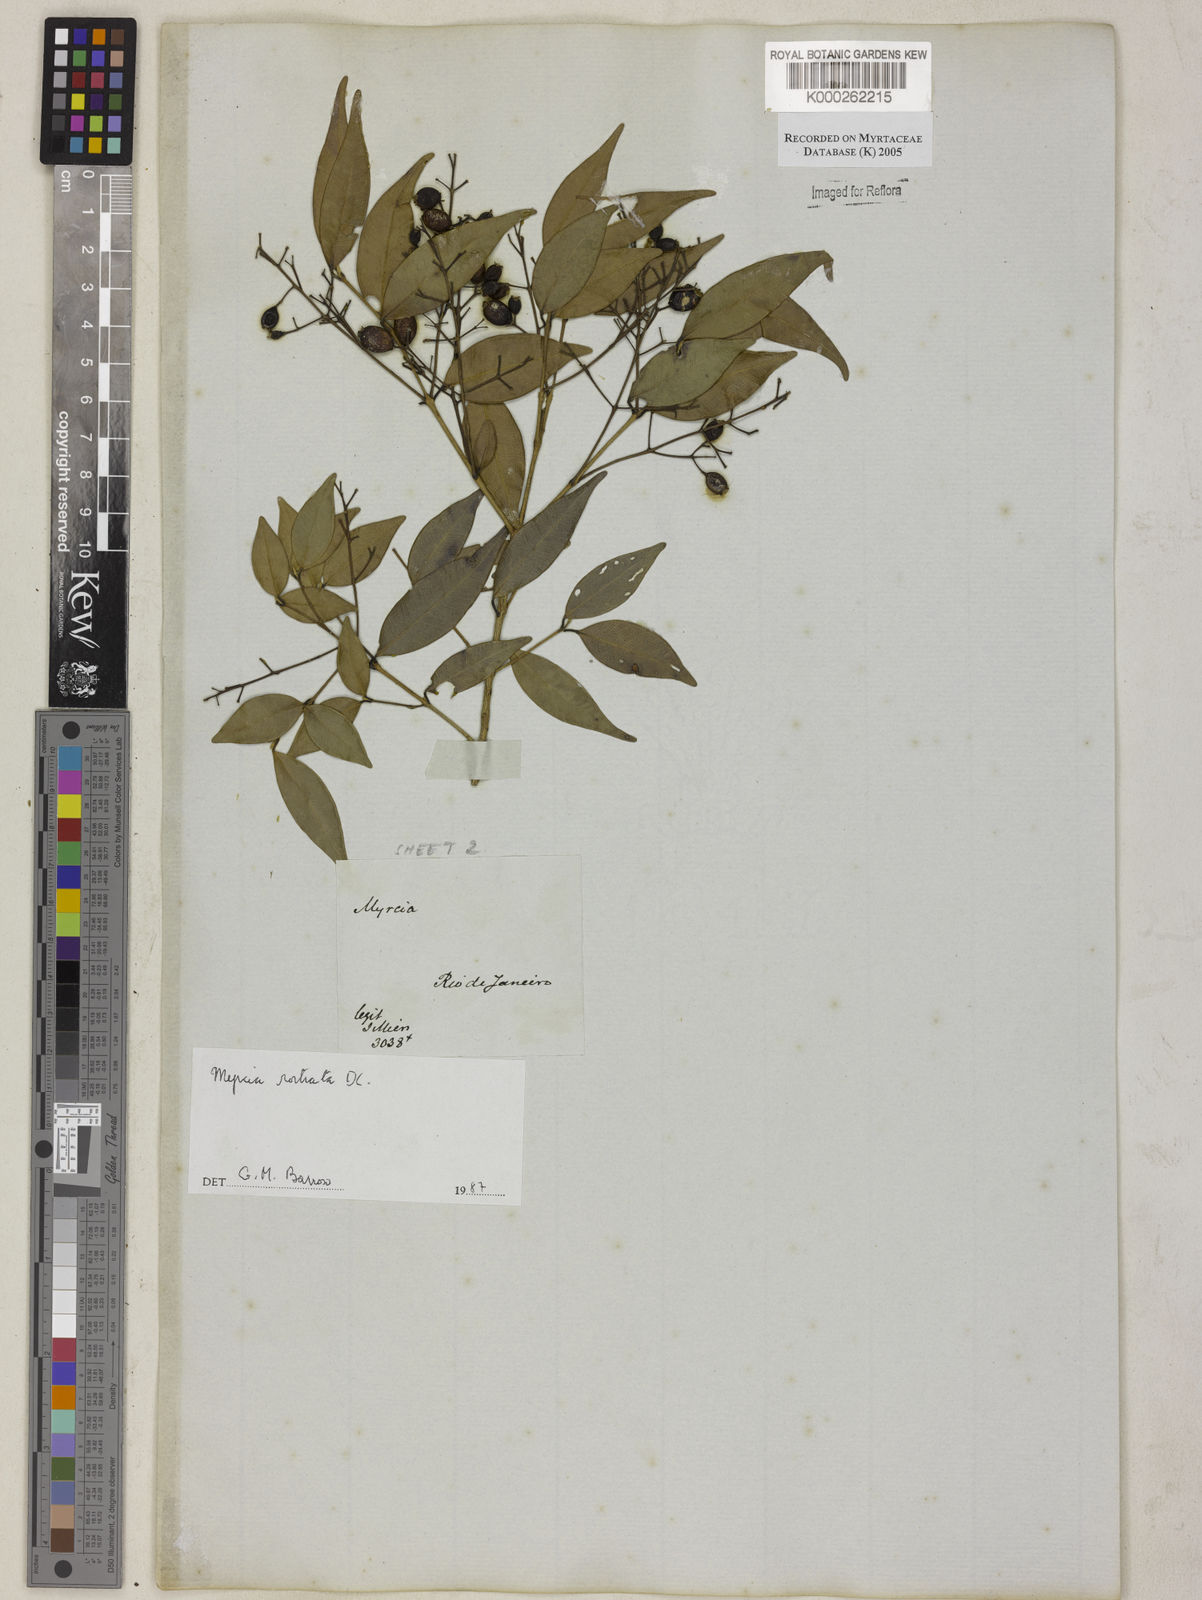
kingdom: Plantae
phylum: Tracheophyta
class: Magnoliopsida
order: Myrtales
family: Myrtaceae
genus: Myrcia
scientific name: Myrcia splendens
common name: Surinam cherry
